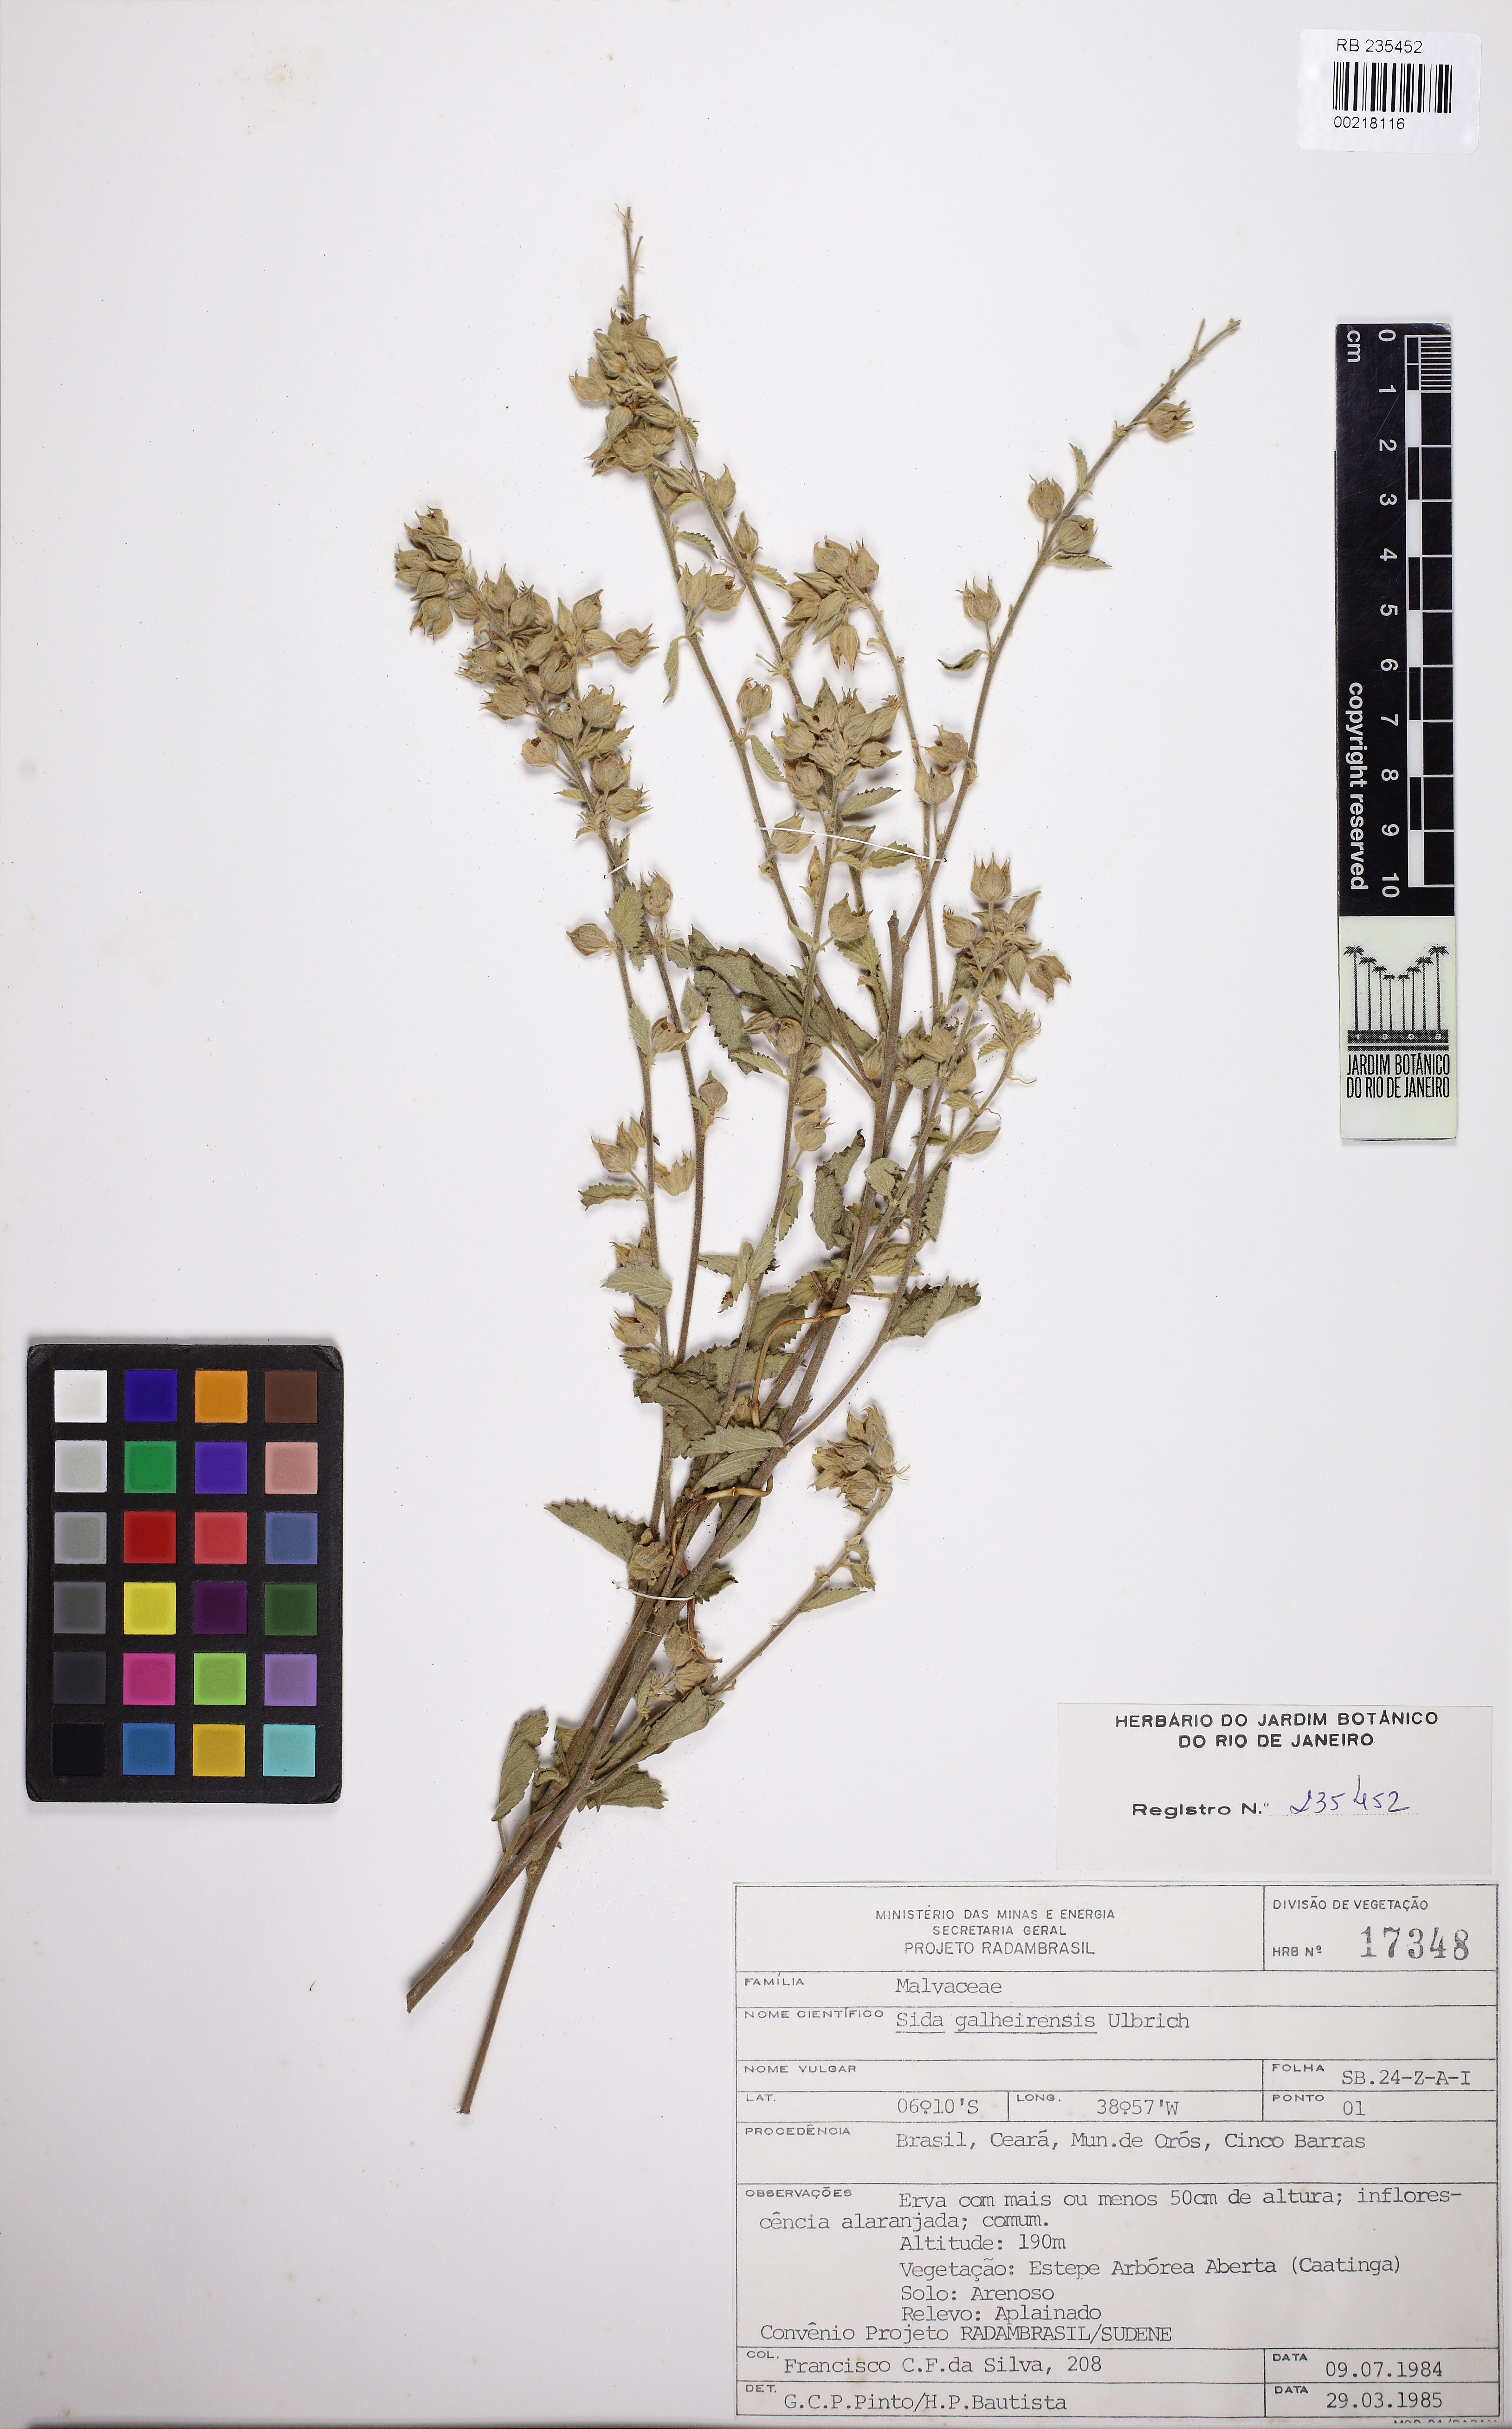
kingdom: Plantae
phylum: Tracheophyta
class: Magnoliopsida
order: Malvales
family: Malvaceae
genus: Sida
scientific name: Sida galheirensis
